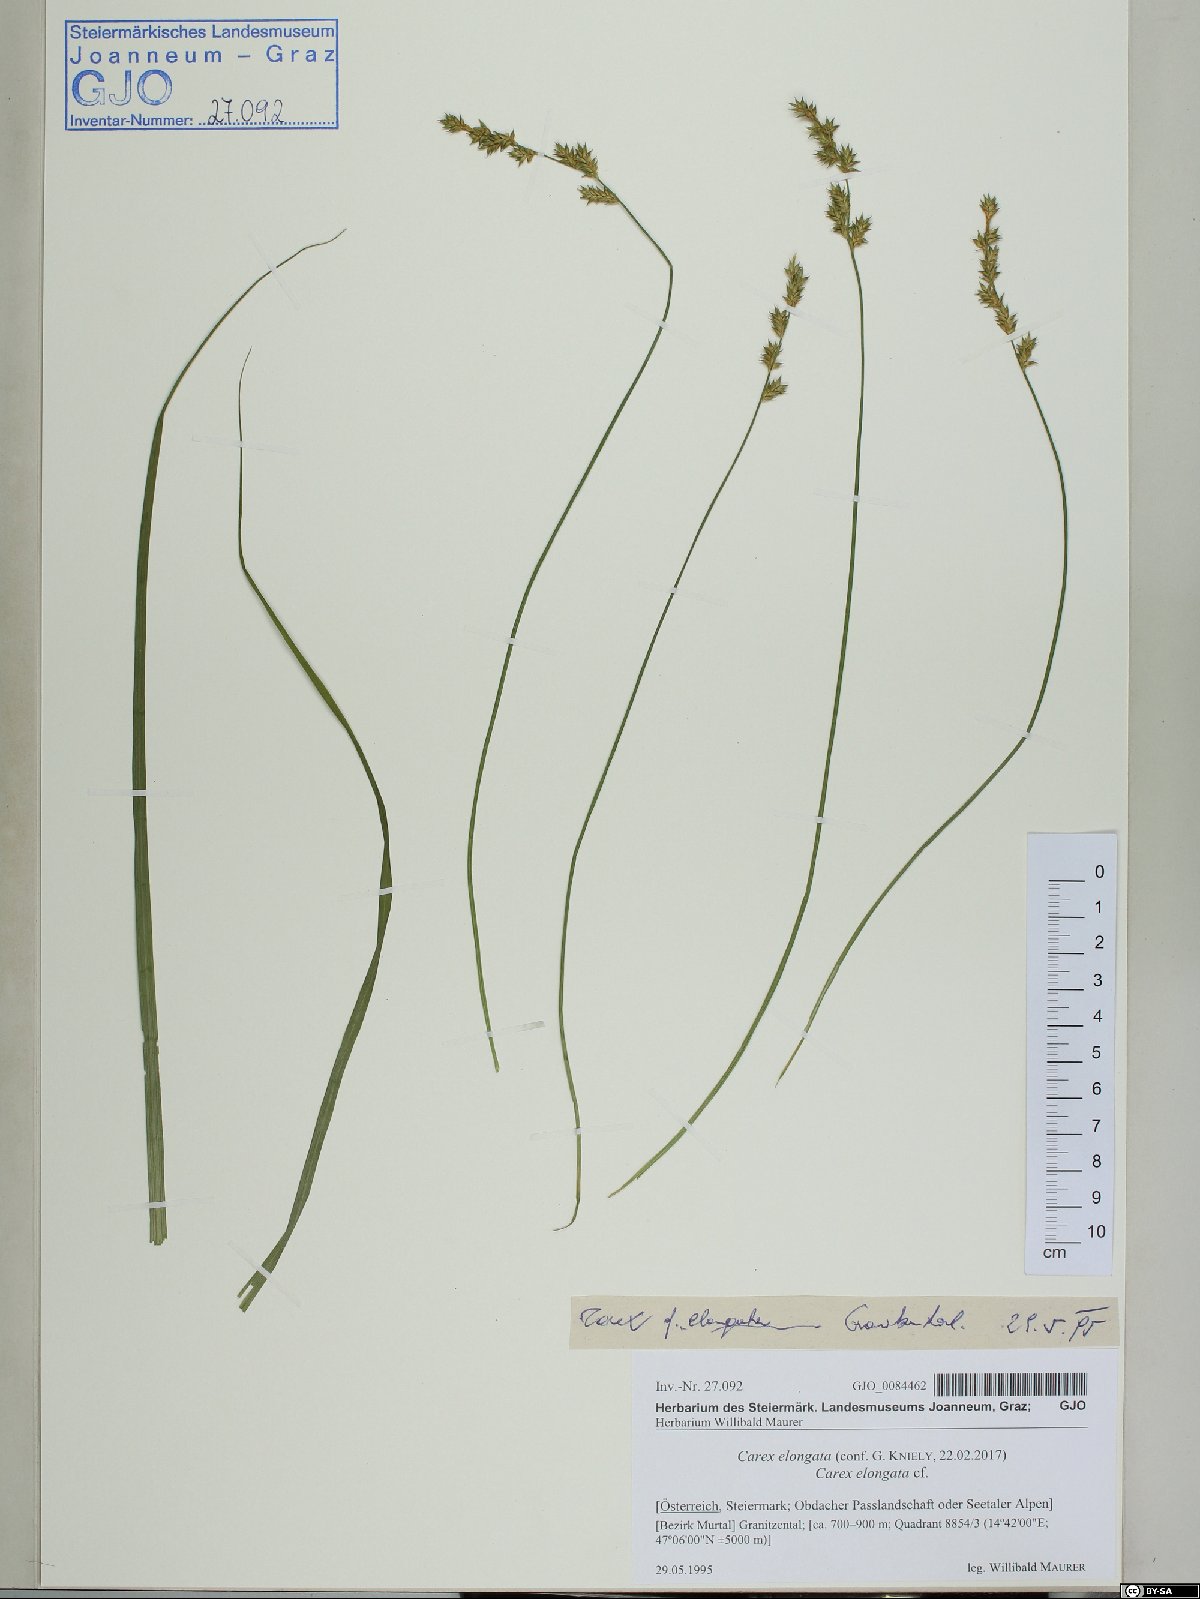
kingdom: Plantae
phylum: Tracheophyta
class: Liliopsida
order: Poales
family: Cyperaceae
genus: Carex
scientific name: Carex elongata
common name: Elongated sedge
